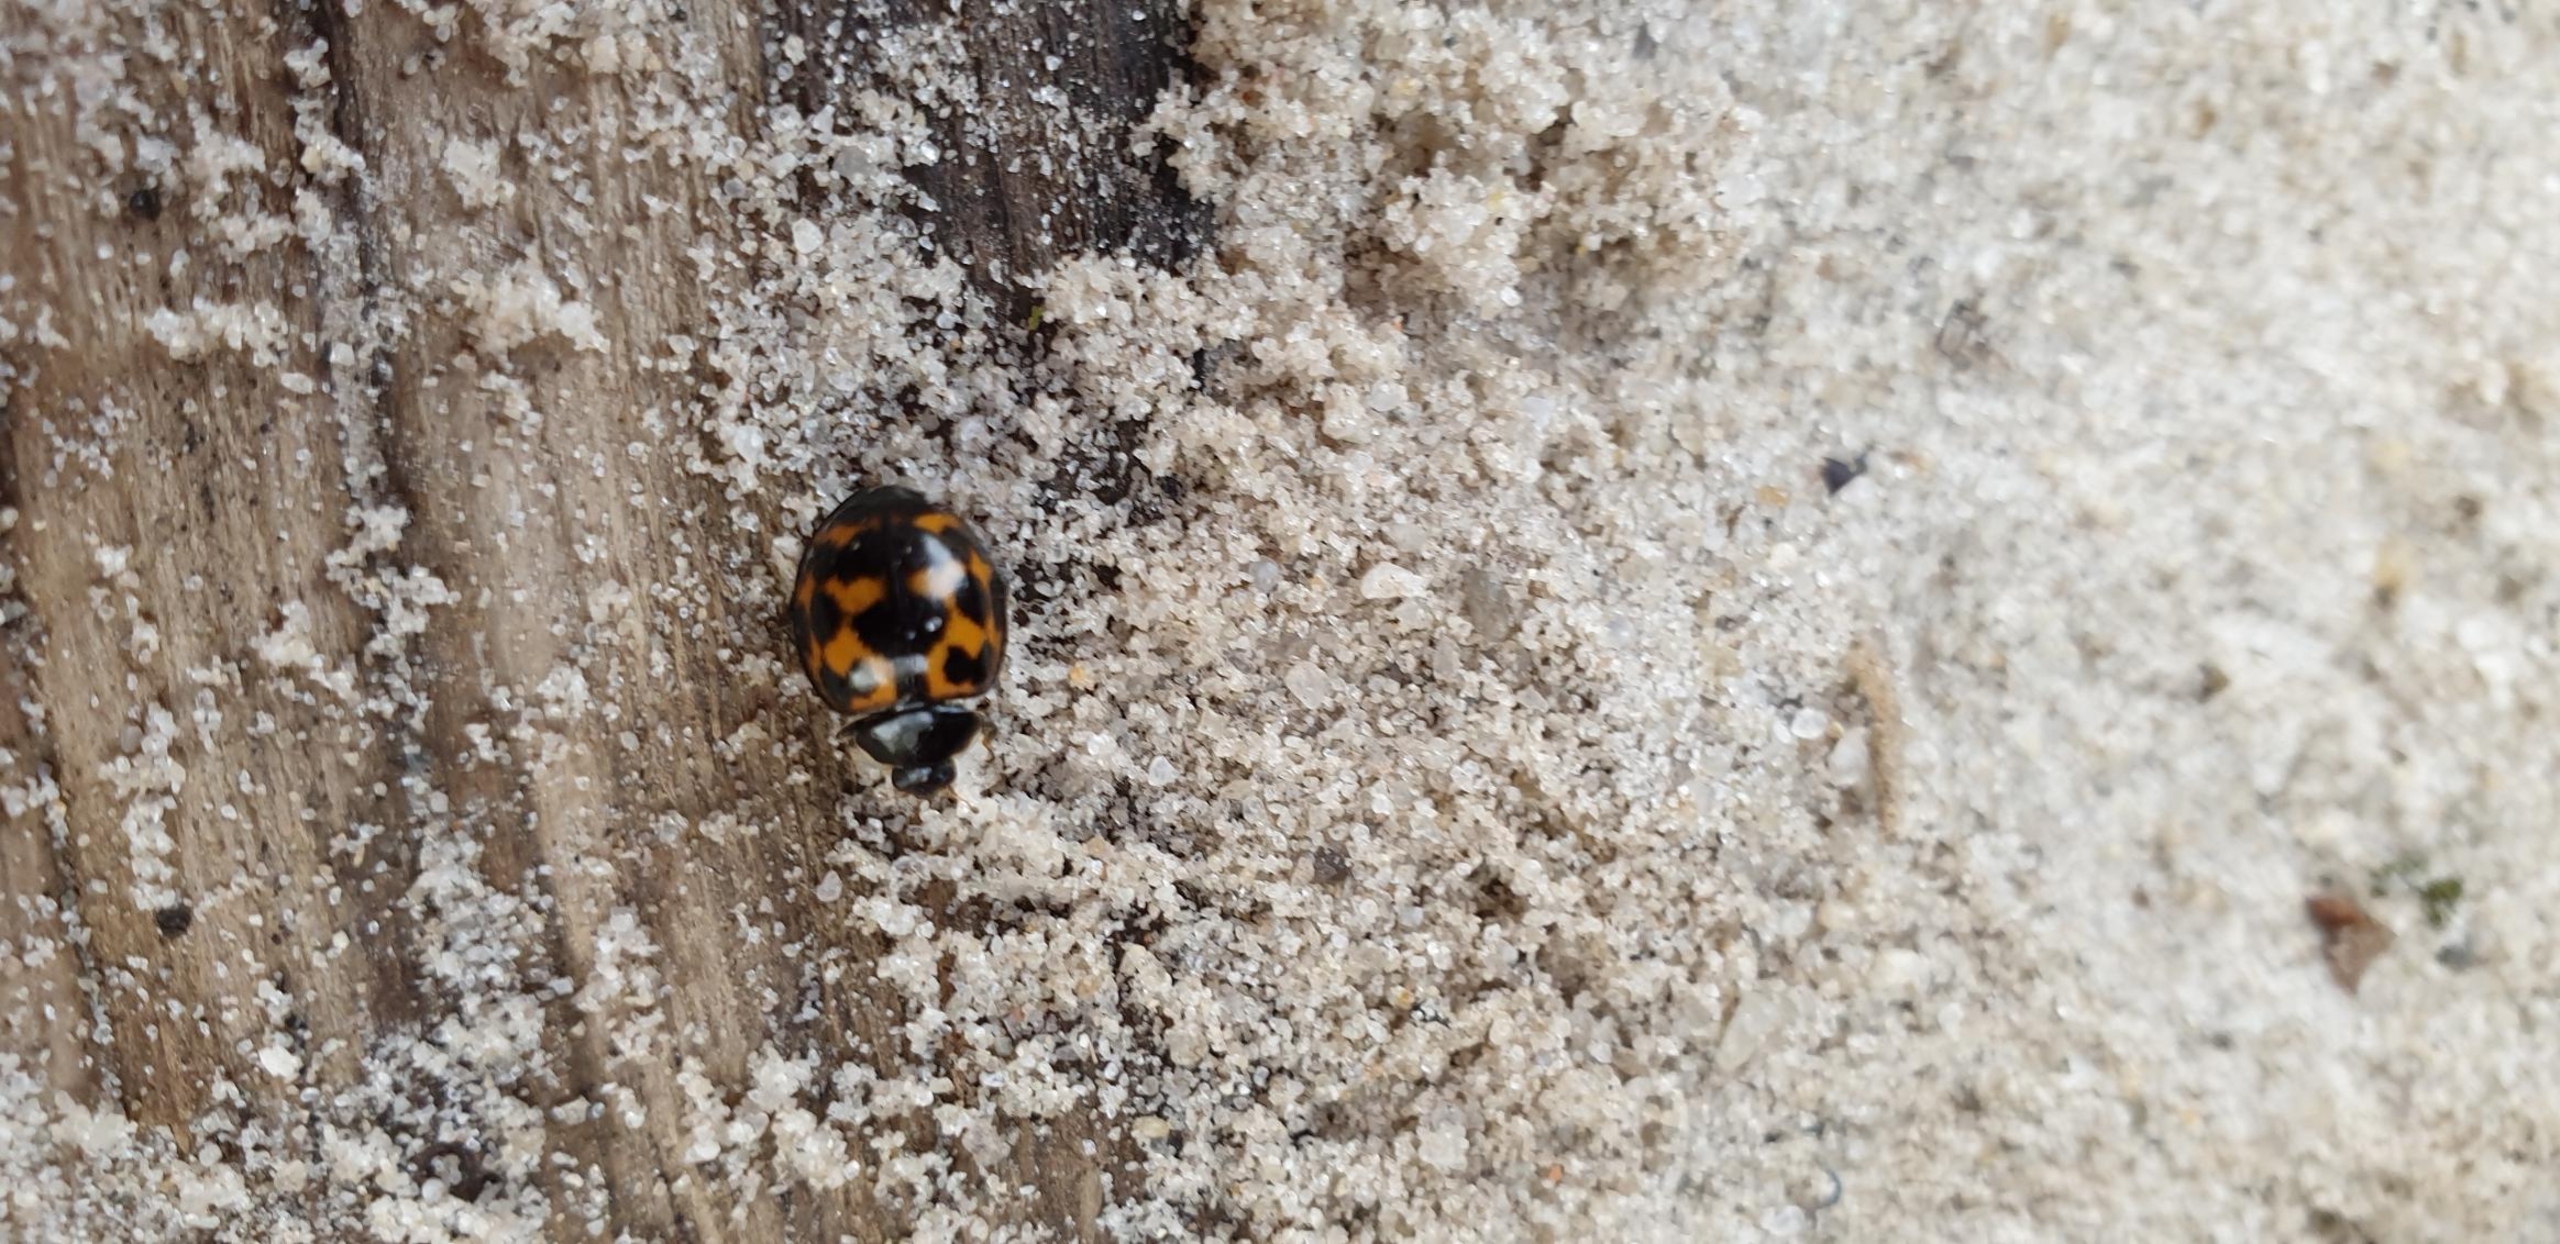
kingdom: Animalia
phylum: Arthropoda
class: Insecta
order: Coleoptera
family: Coccinellidae
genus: Harmonia
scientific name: Harmonia axyridis
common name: Harlekinmariehøne
